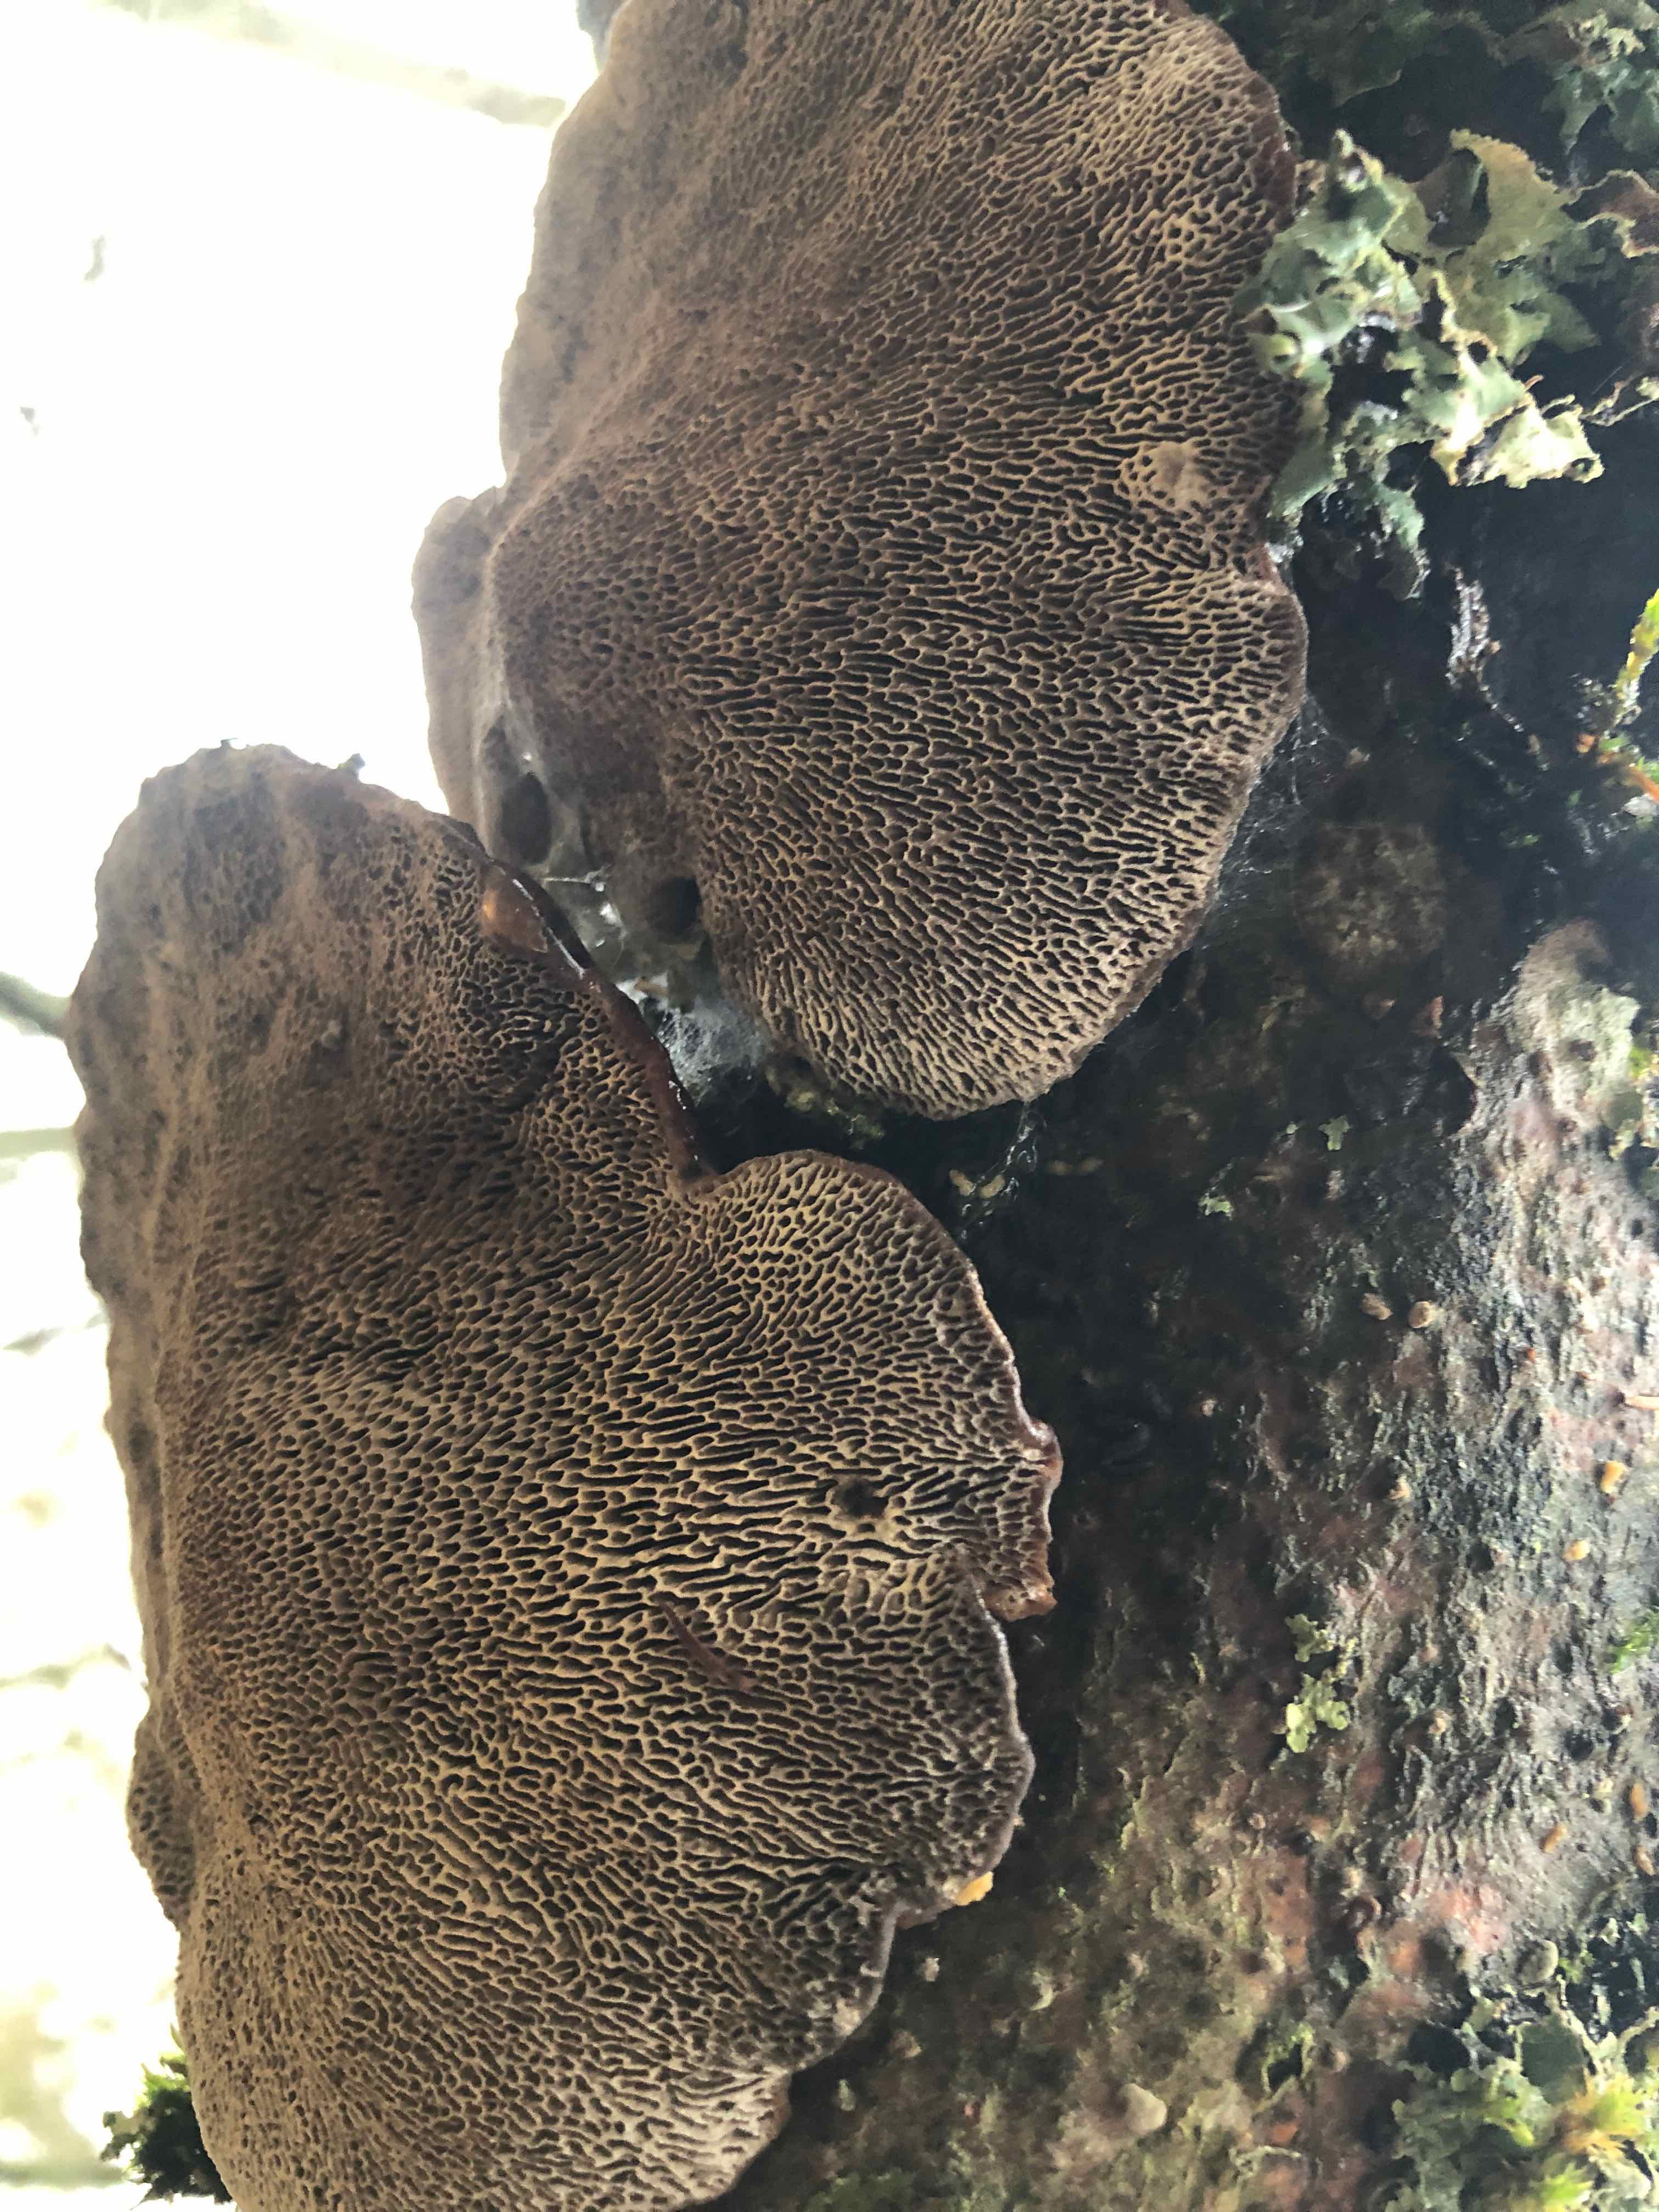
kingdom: Fungi
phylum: Basidiomycota
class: Agaricomycetes
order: Polyporales
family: Polyporaceae
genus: Daedaleopsis
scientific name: Daedaleopsis confragosa
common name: rødmende læderporesvamp
